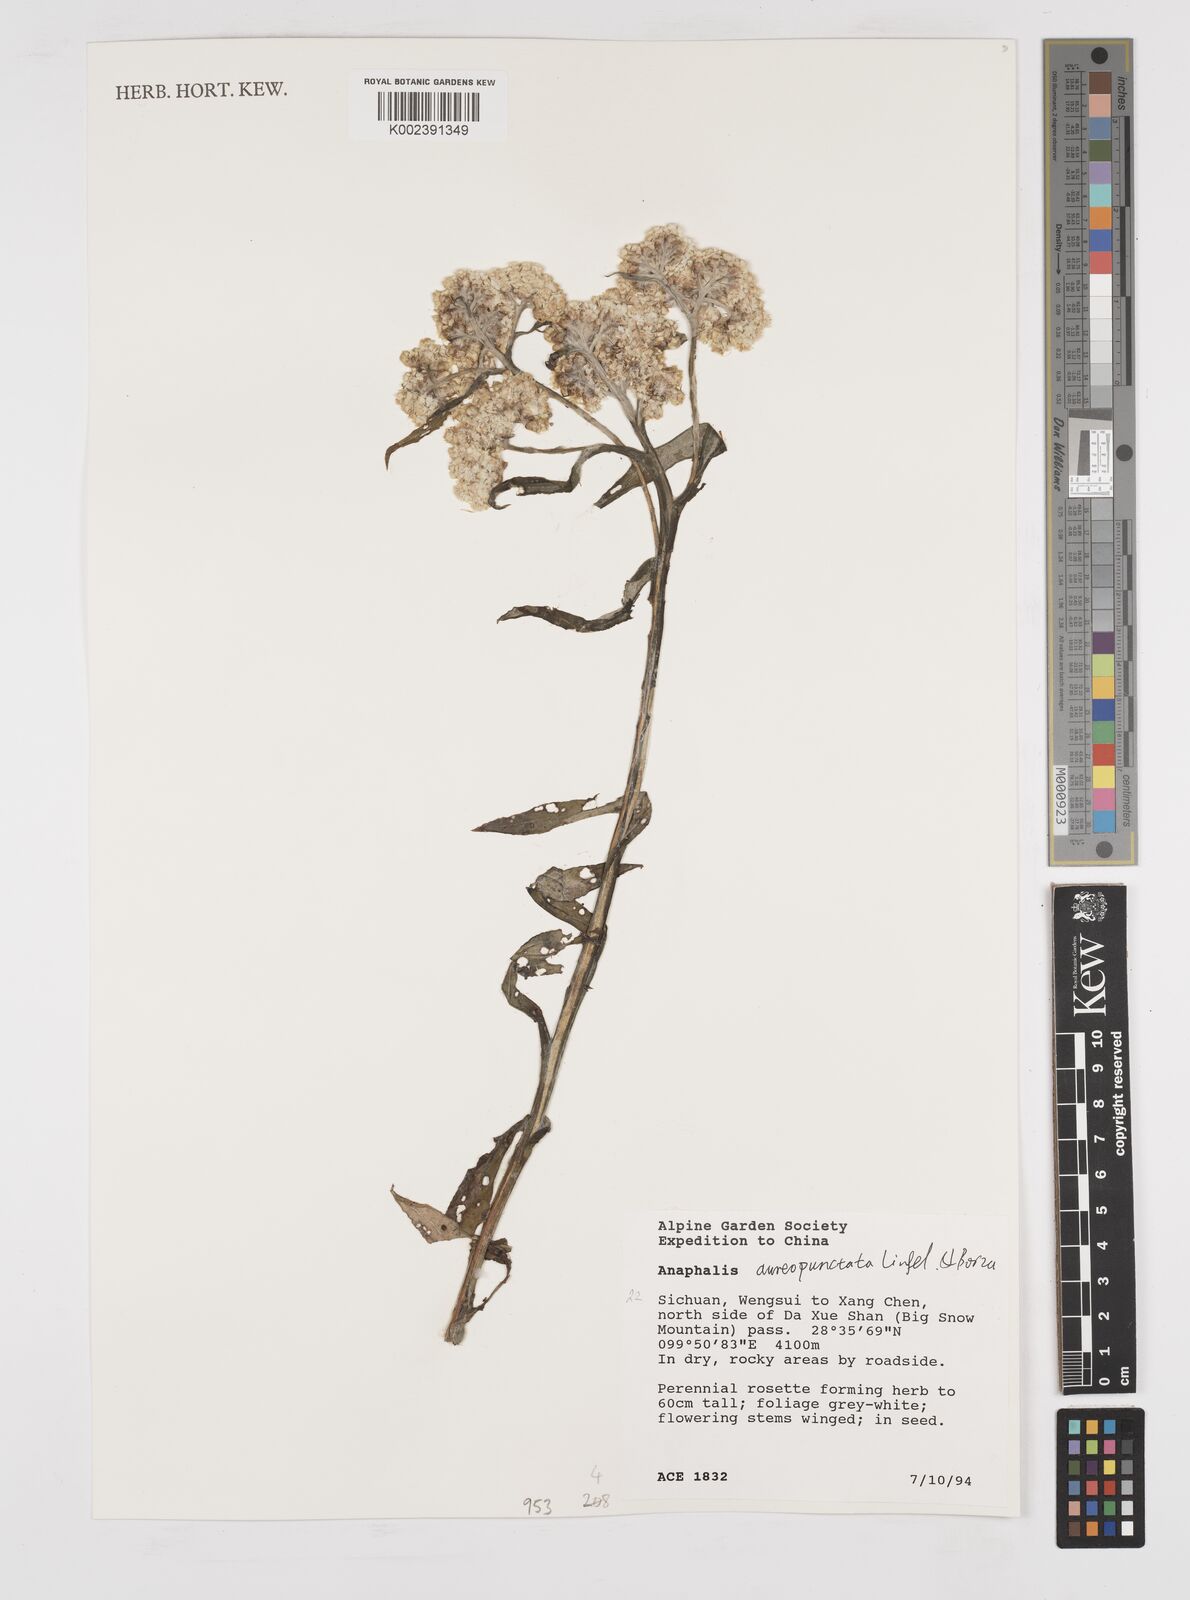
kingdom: Plantae
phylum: Tracheophyta
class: Magnoliopsida
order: Asterales
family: Asteraceae
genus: Anaphalis
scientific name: Anaphalis aureopunctata
